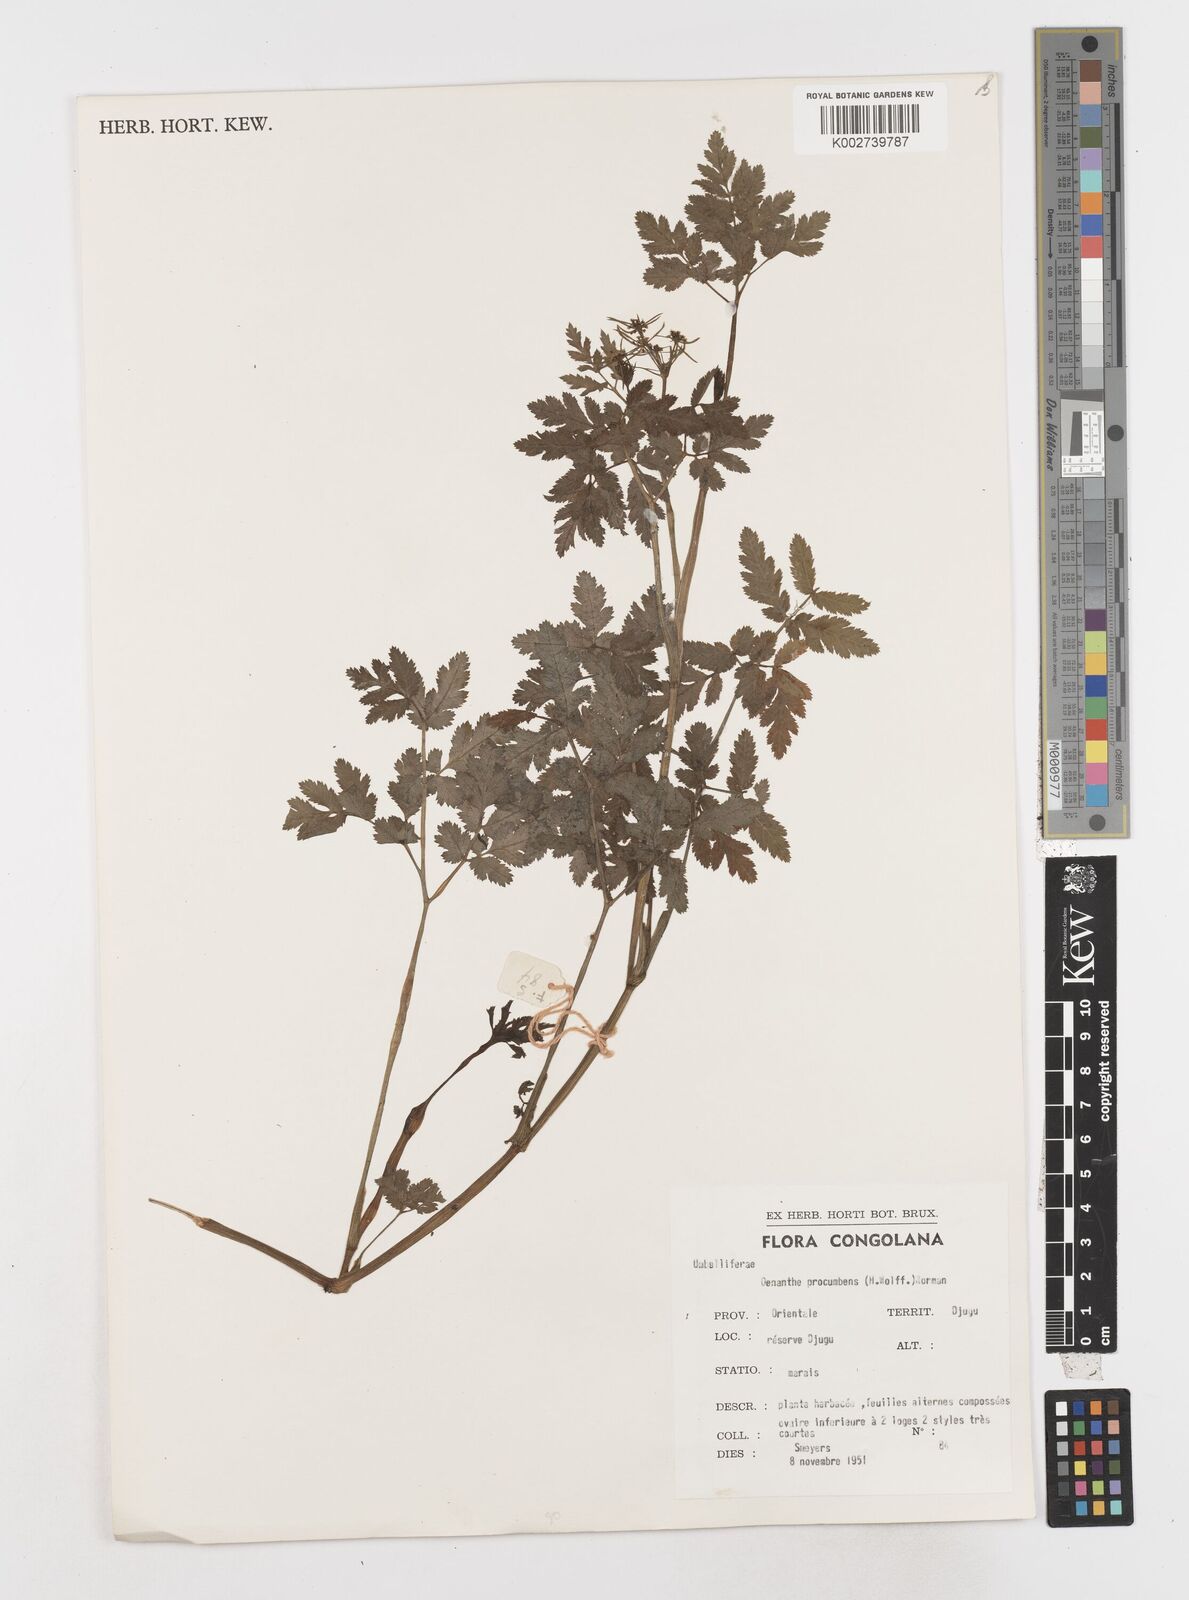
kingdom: Plantae
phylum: Tracheophyta
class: Magnoliopsida
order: Apiales
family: Apiaceae
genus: Oenanthe
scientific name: Oenanthe procumbens
